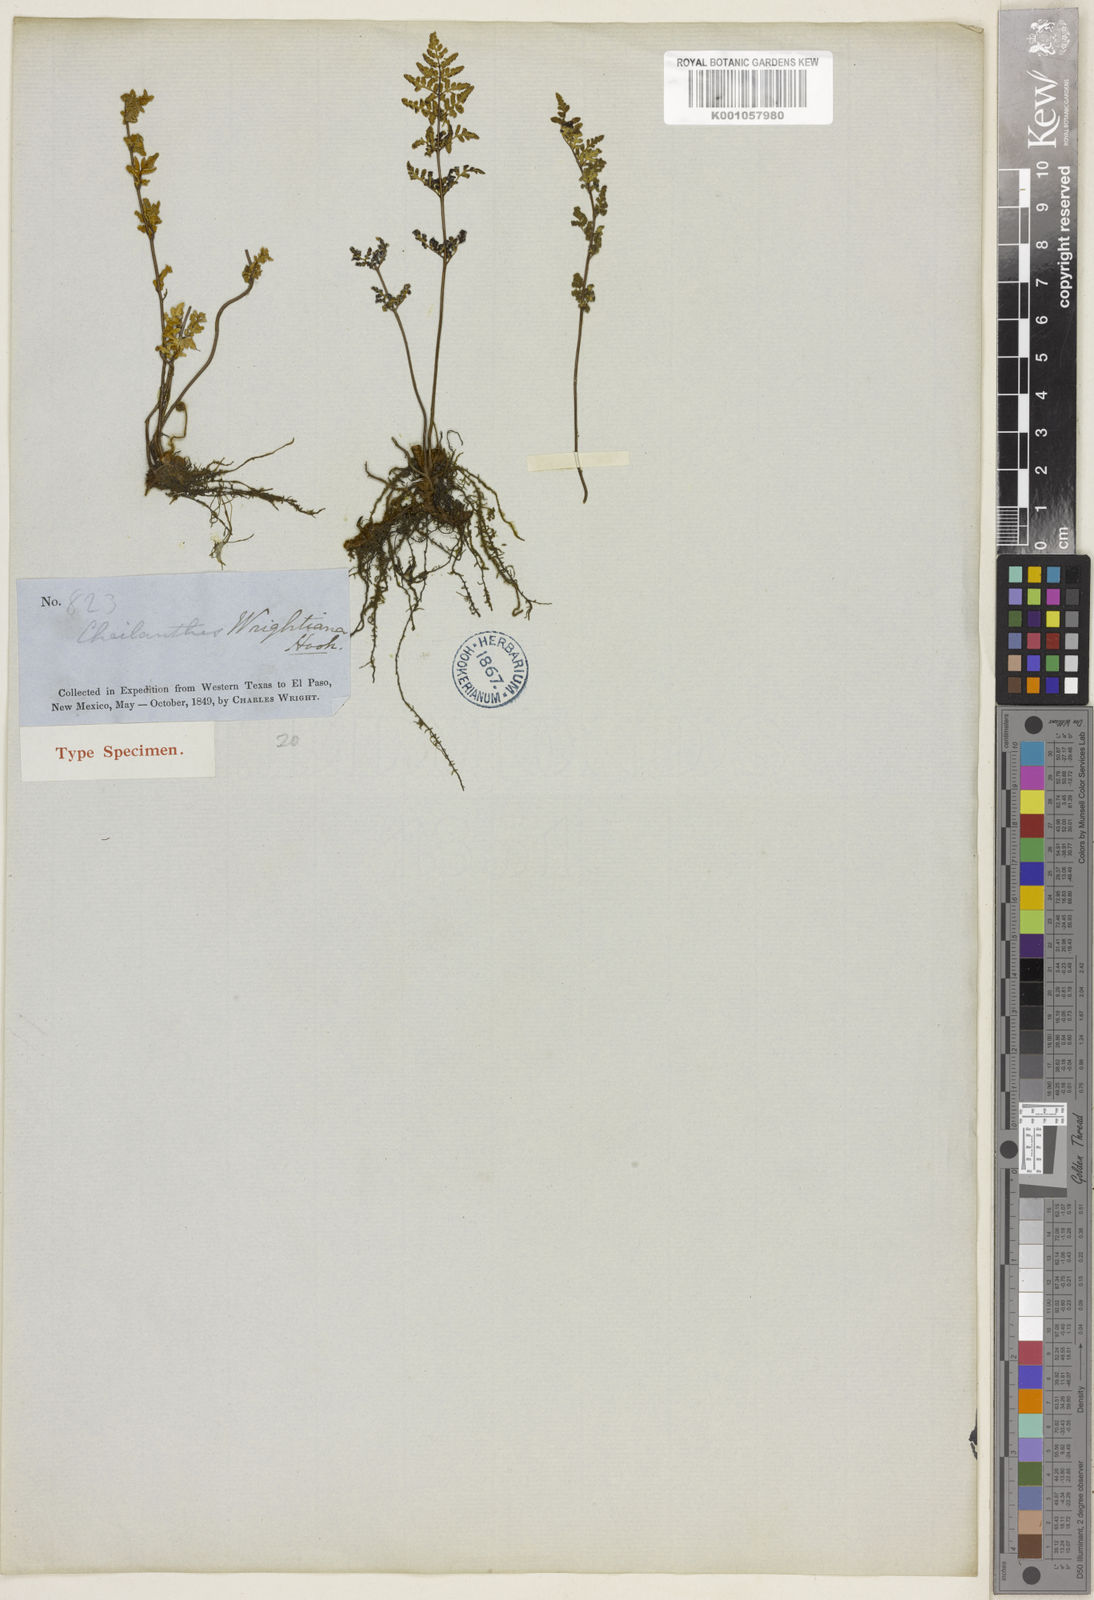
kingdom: Plantae
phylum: Tracheophyta
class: Polypodiopsida
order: Polypodiales
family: Pteridaceae
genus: Myriopteris
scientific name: Myriopteris wrightii
